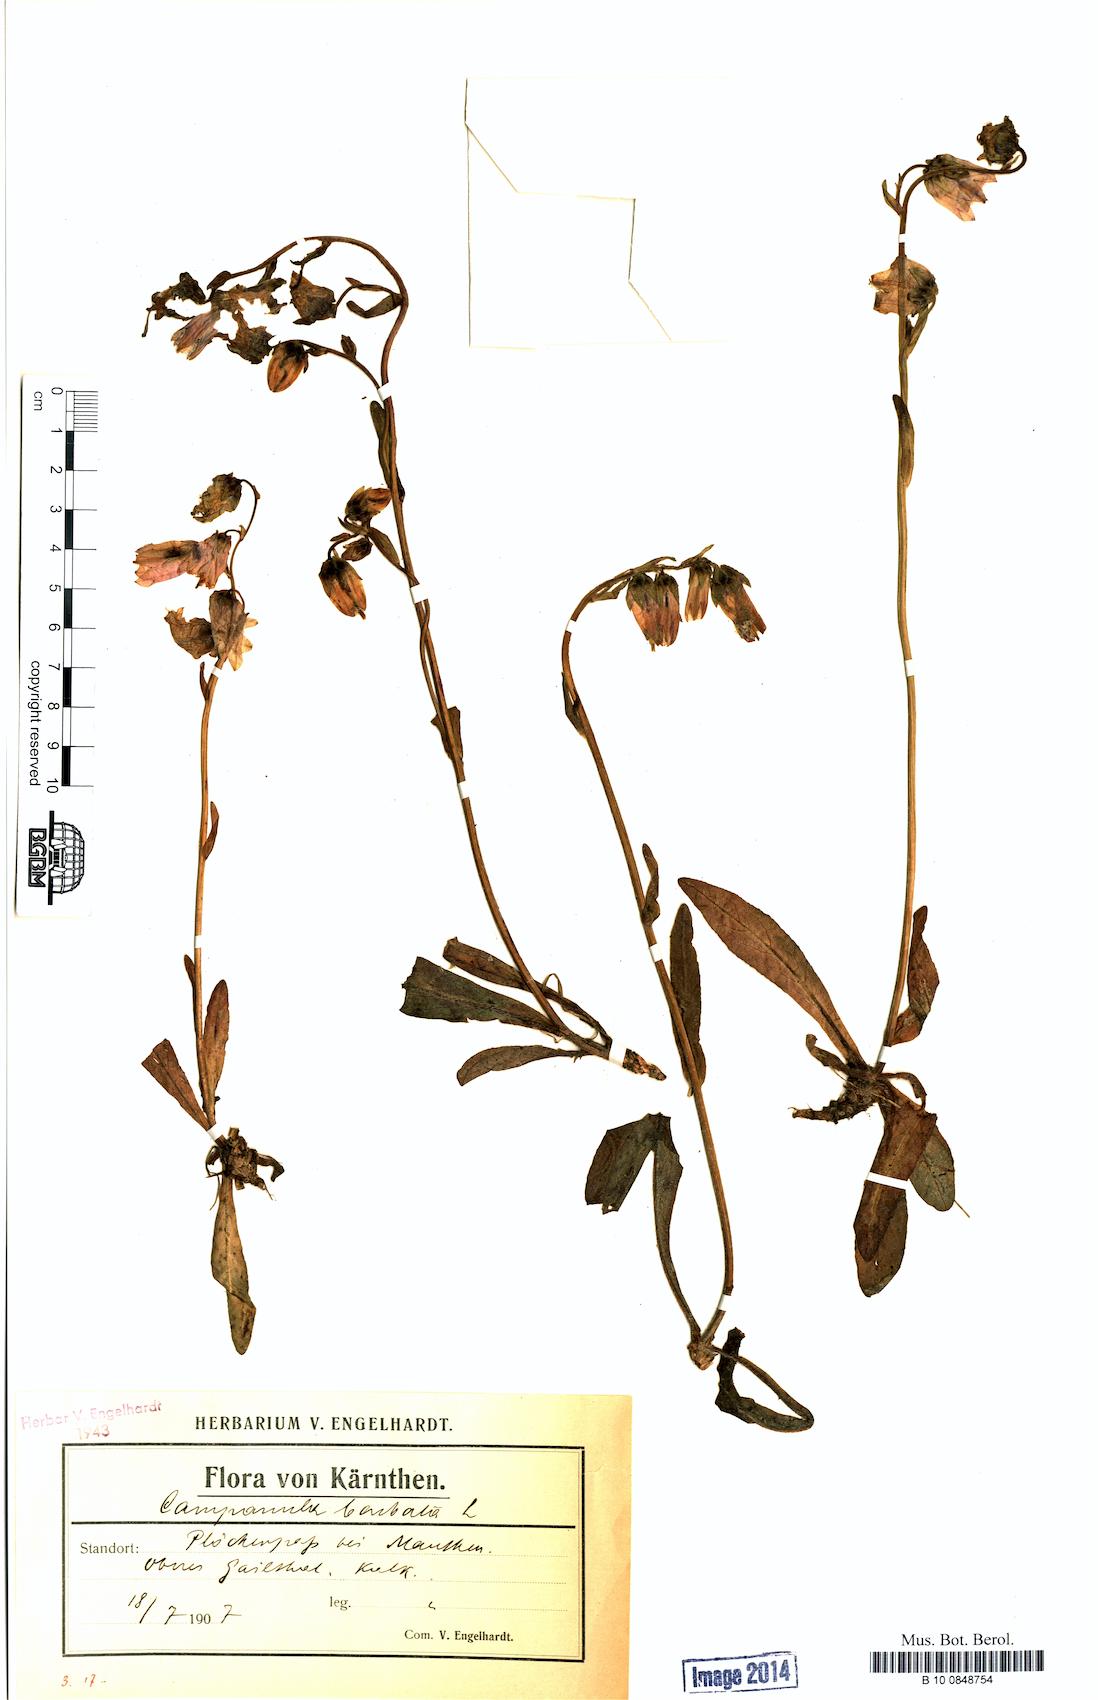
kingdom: Plantae
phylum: Tracheophyta
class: Magnoliopsida
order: Asterales
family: Campanulaceae
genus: Campanula
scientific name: Campanula barbata
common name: Bearded bellflower
